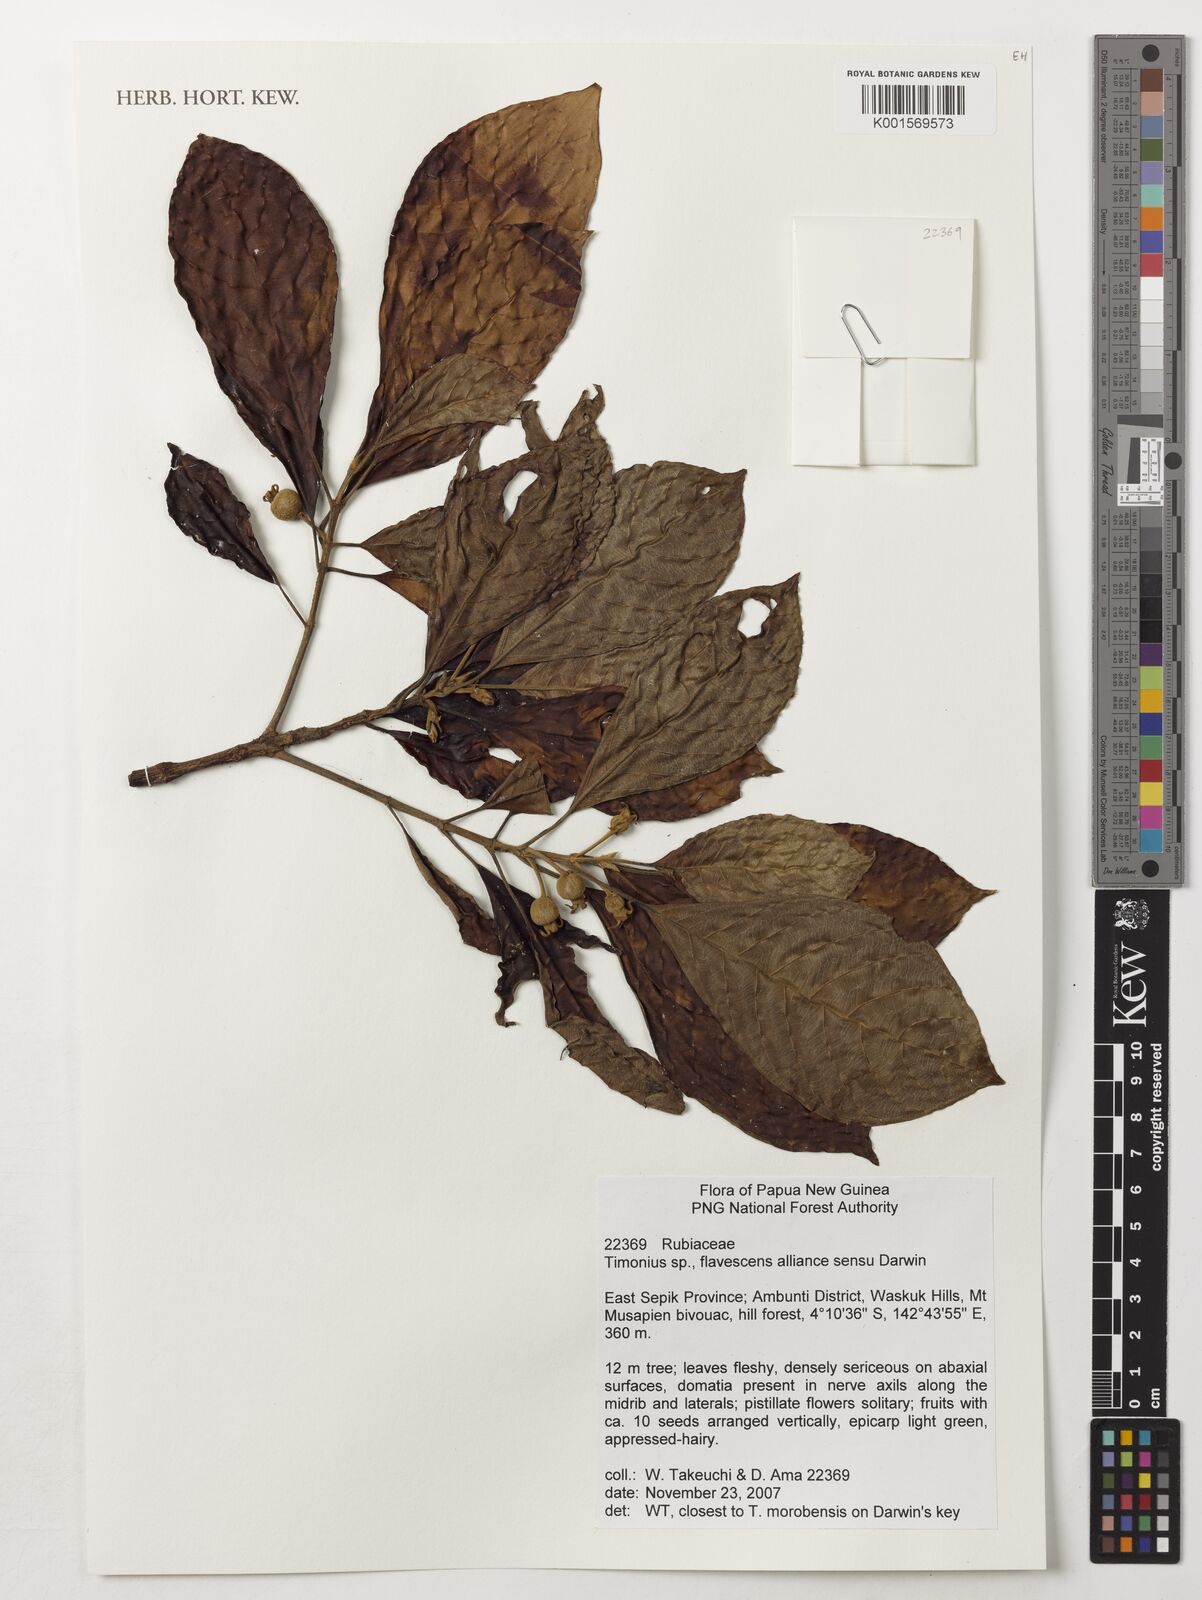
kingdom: Plantae
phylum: Tracheophyta
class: Magnoliopsida
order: Gentianales
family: Rubiaceae
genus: Timonius
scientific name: Timonius
